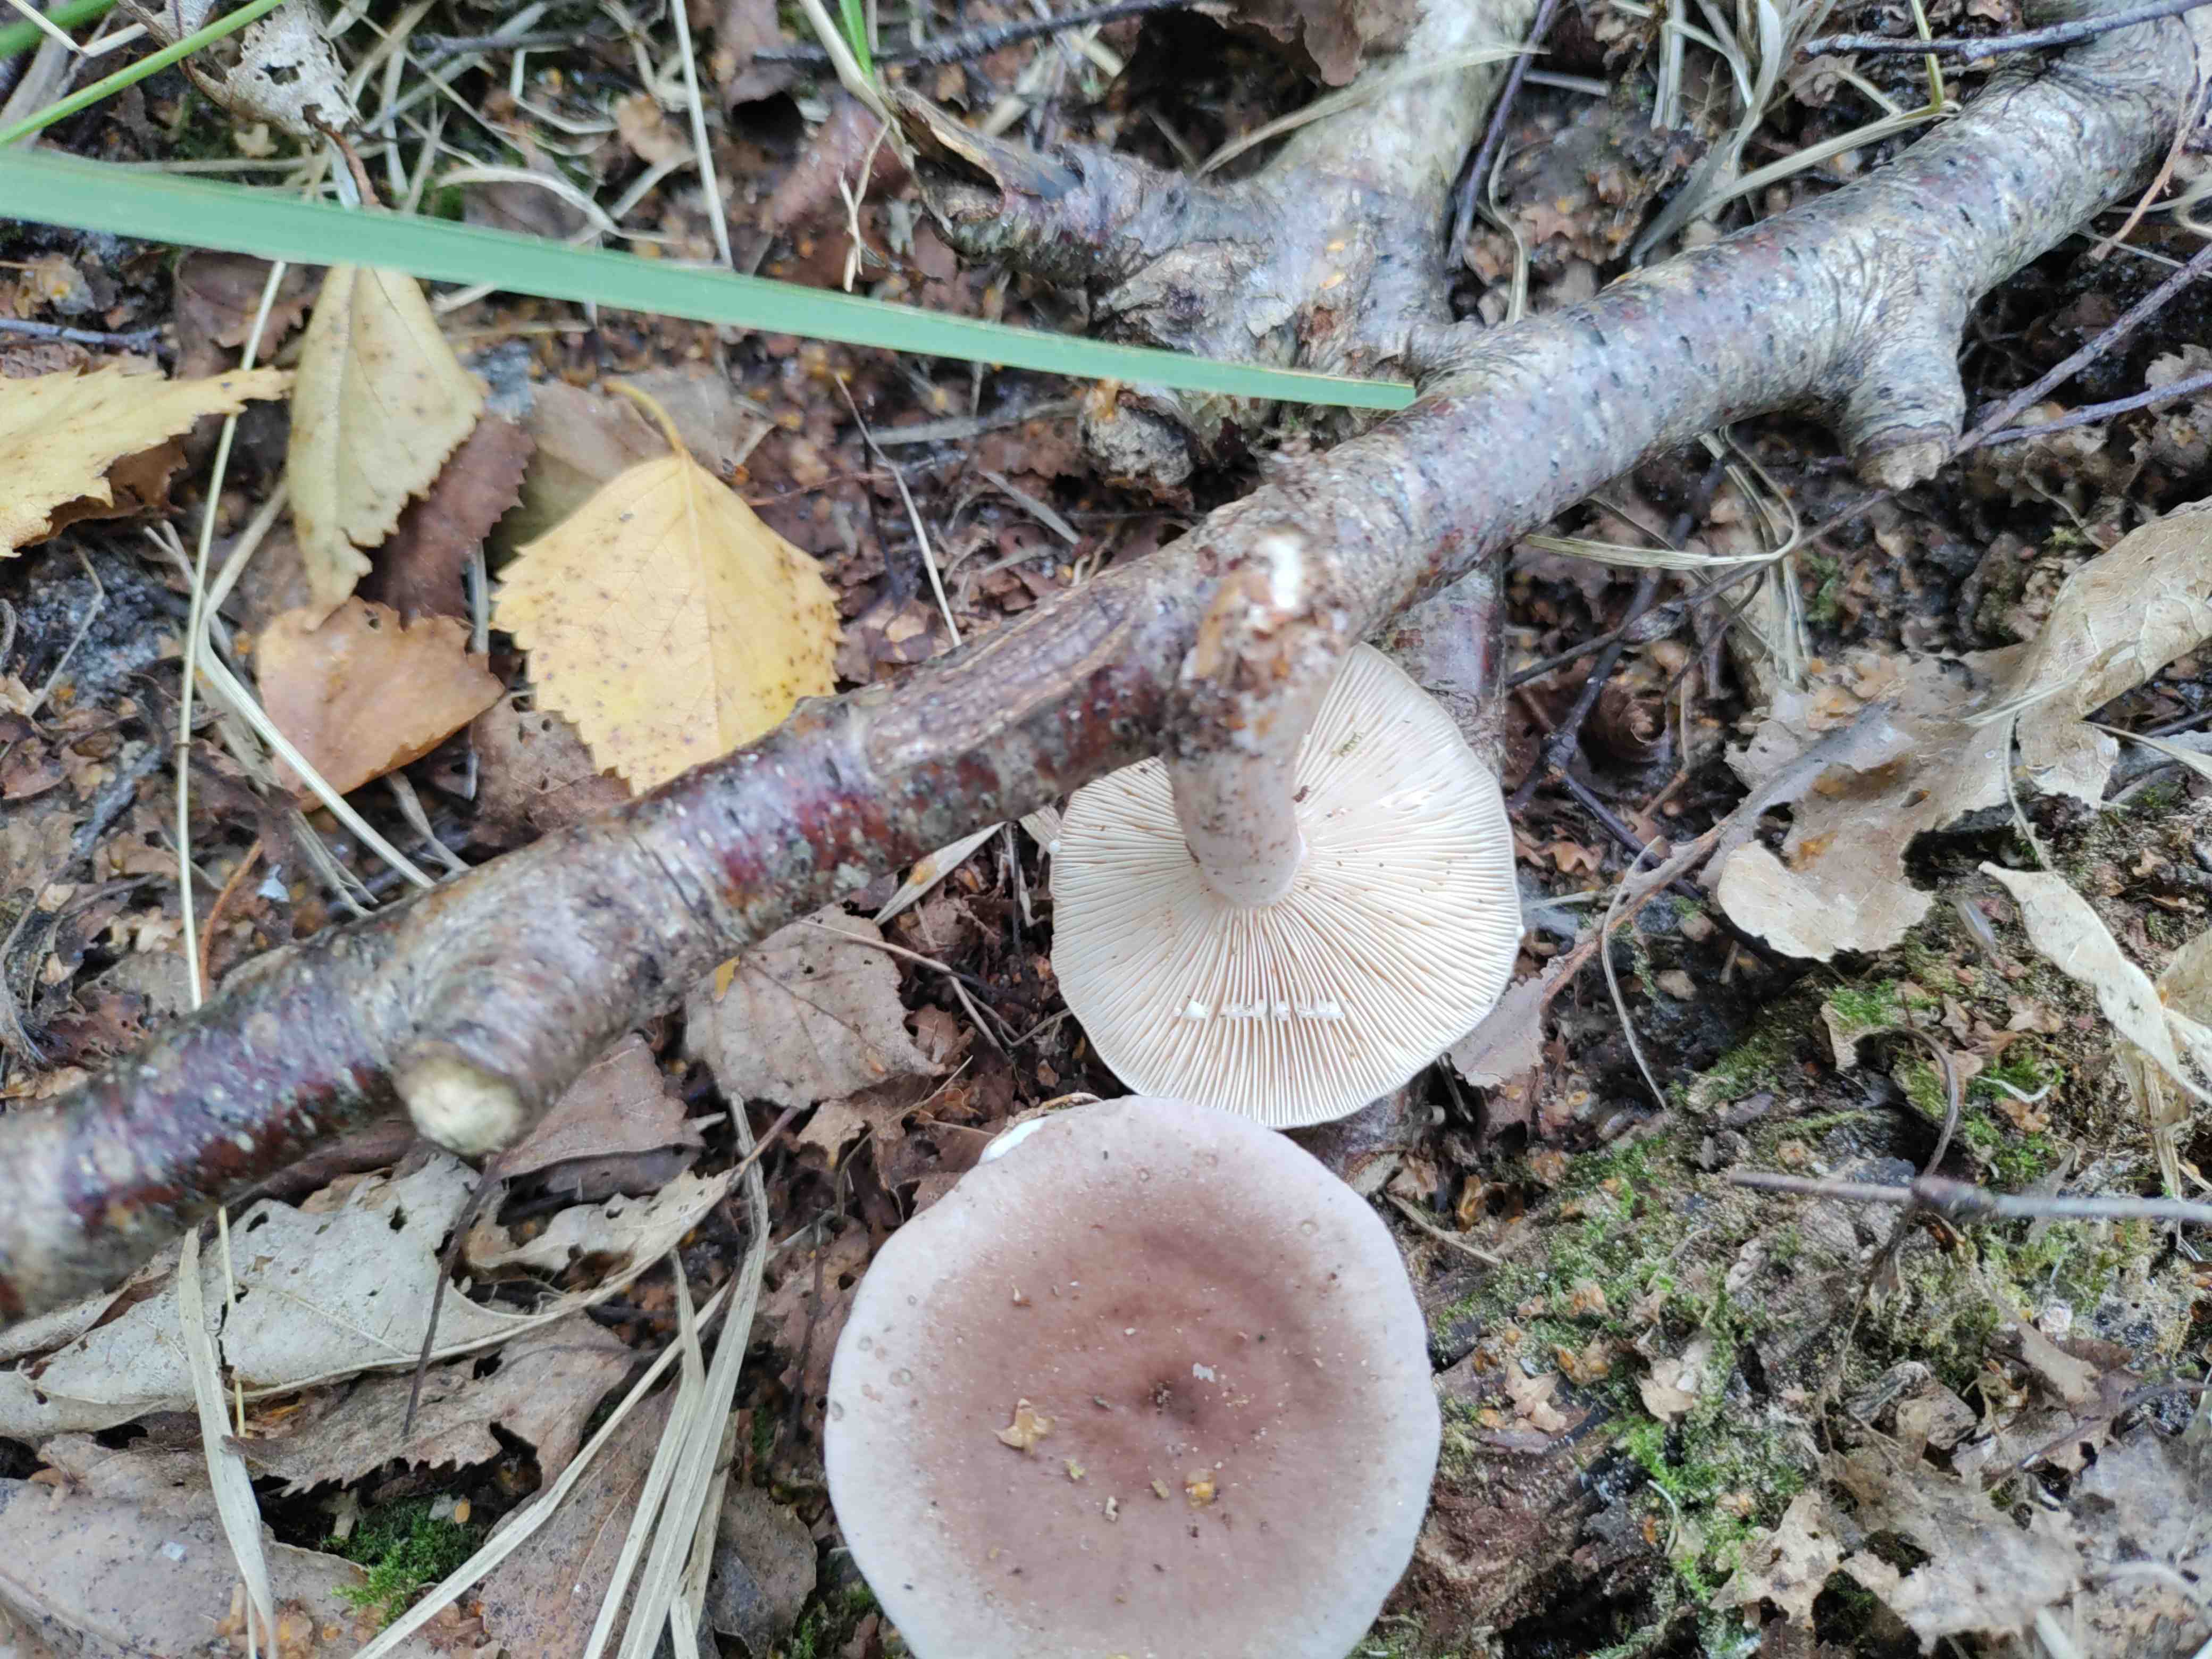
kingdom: Fungi
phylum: Basidiomycota
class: Agaricomycetes
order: Russulales
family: Russulaceae
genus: Lactarius
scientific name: Lactarius vietus
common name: violetgrå mælkehat
